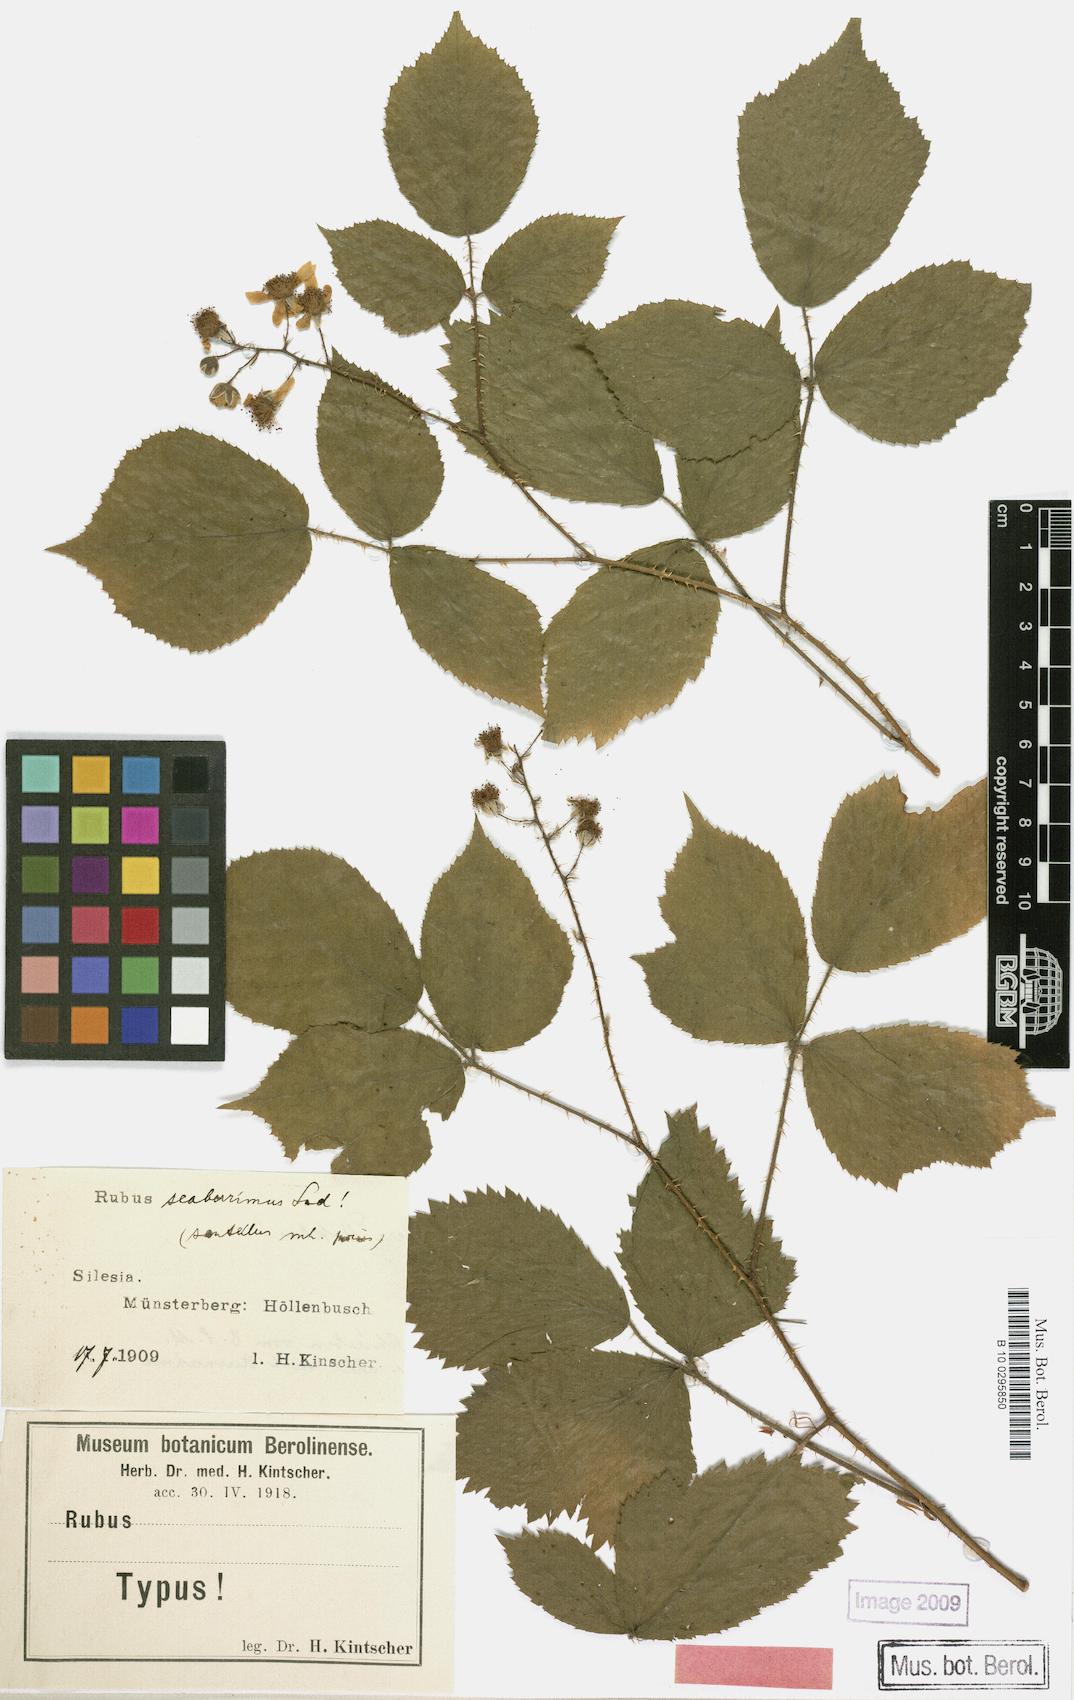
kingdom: Plantae
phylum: Tracheophyta
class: Magnoliopsida
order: Rosales
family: Rosaceae
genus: Rubus
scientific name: Rubus sentellus
